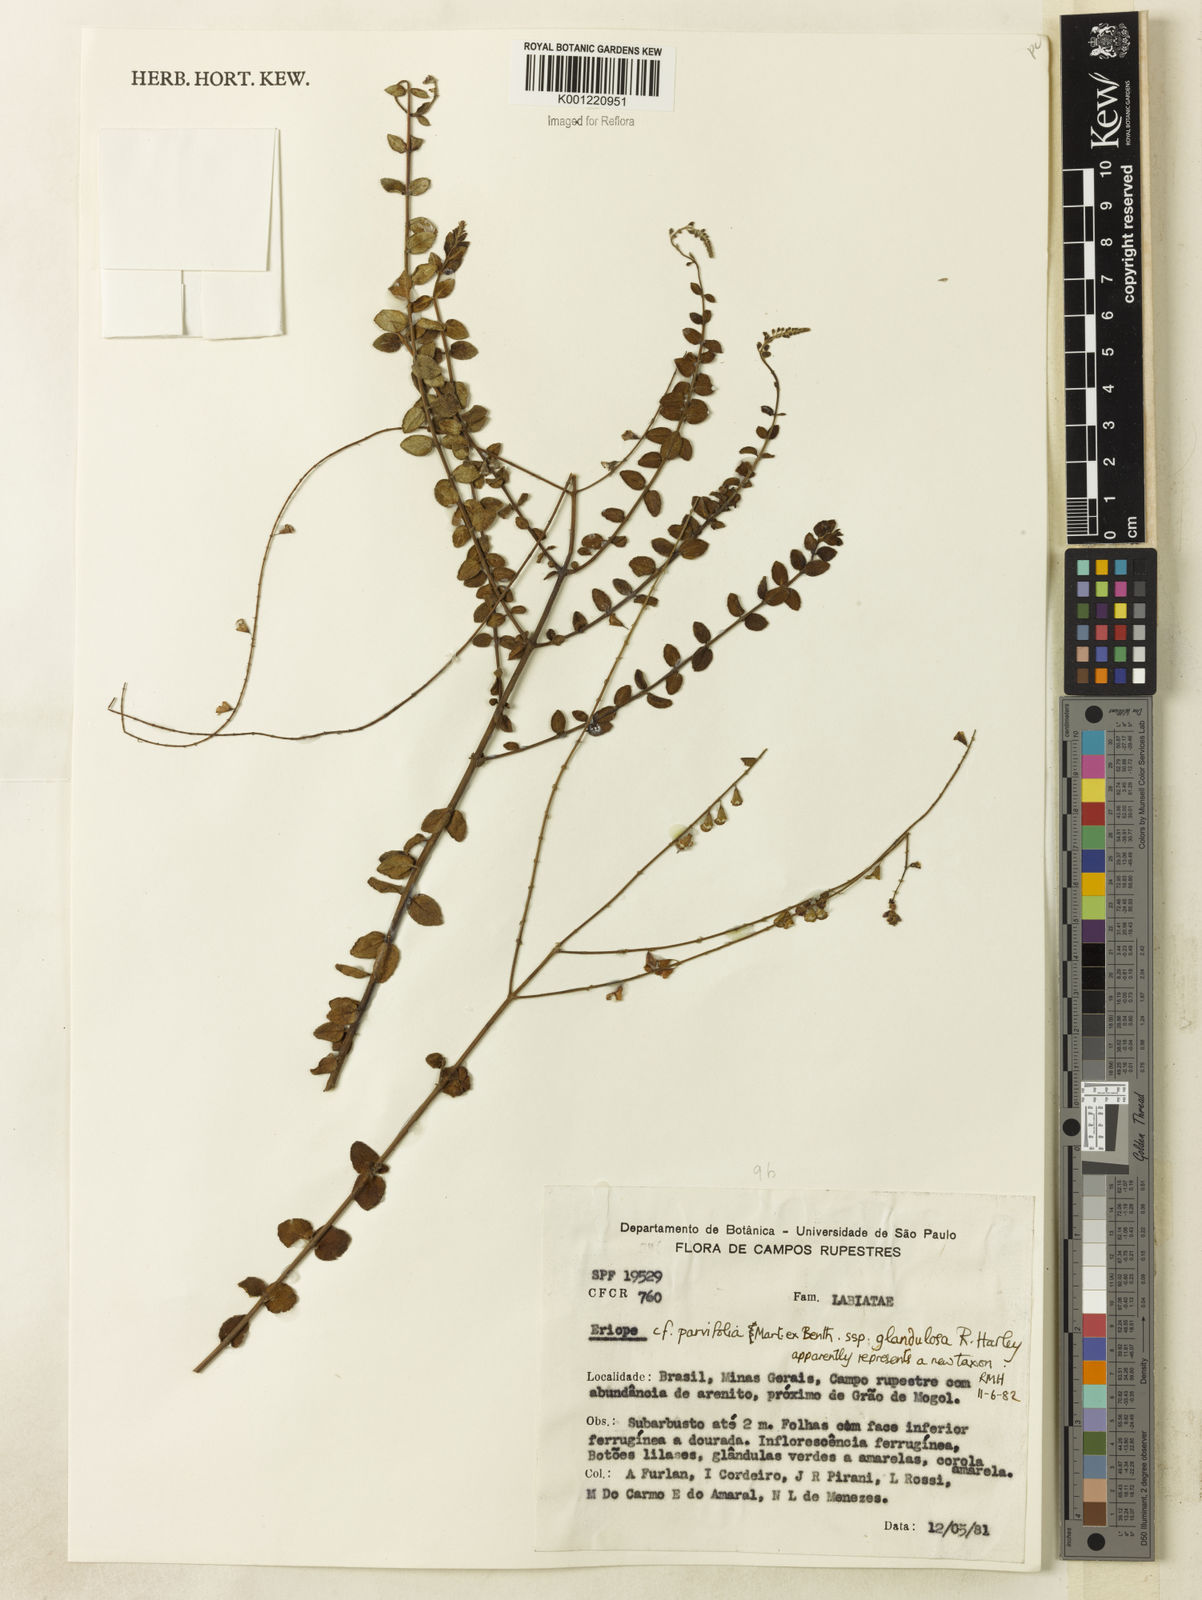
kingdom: Plantae
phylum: Tracheophyta
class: Magnoliopsida
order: Lamiales
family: Lamiaceae
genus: Eriope
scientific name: Eriope glandulosa
